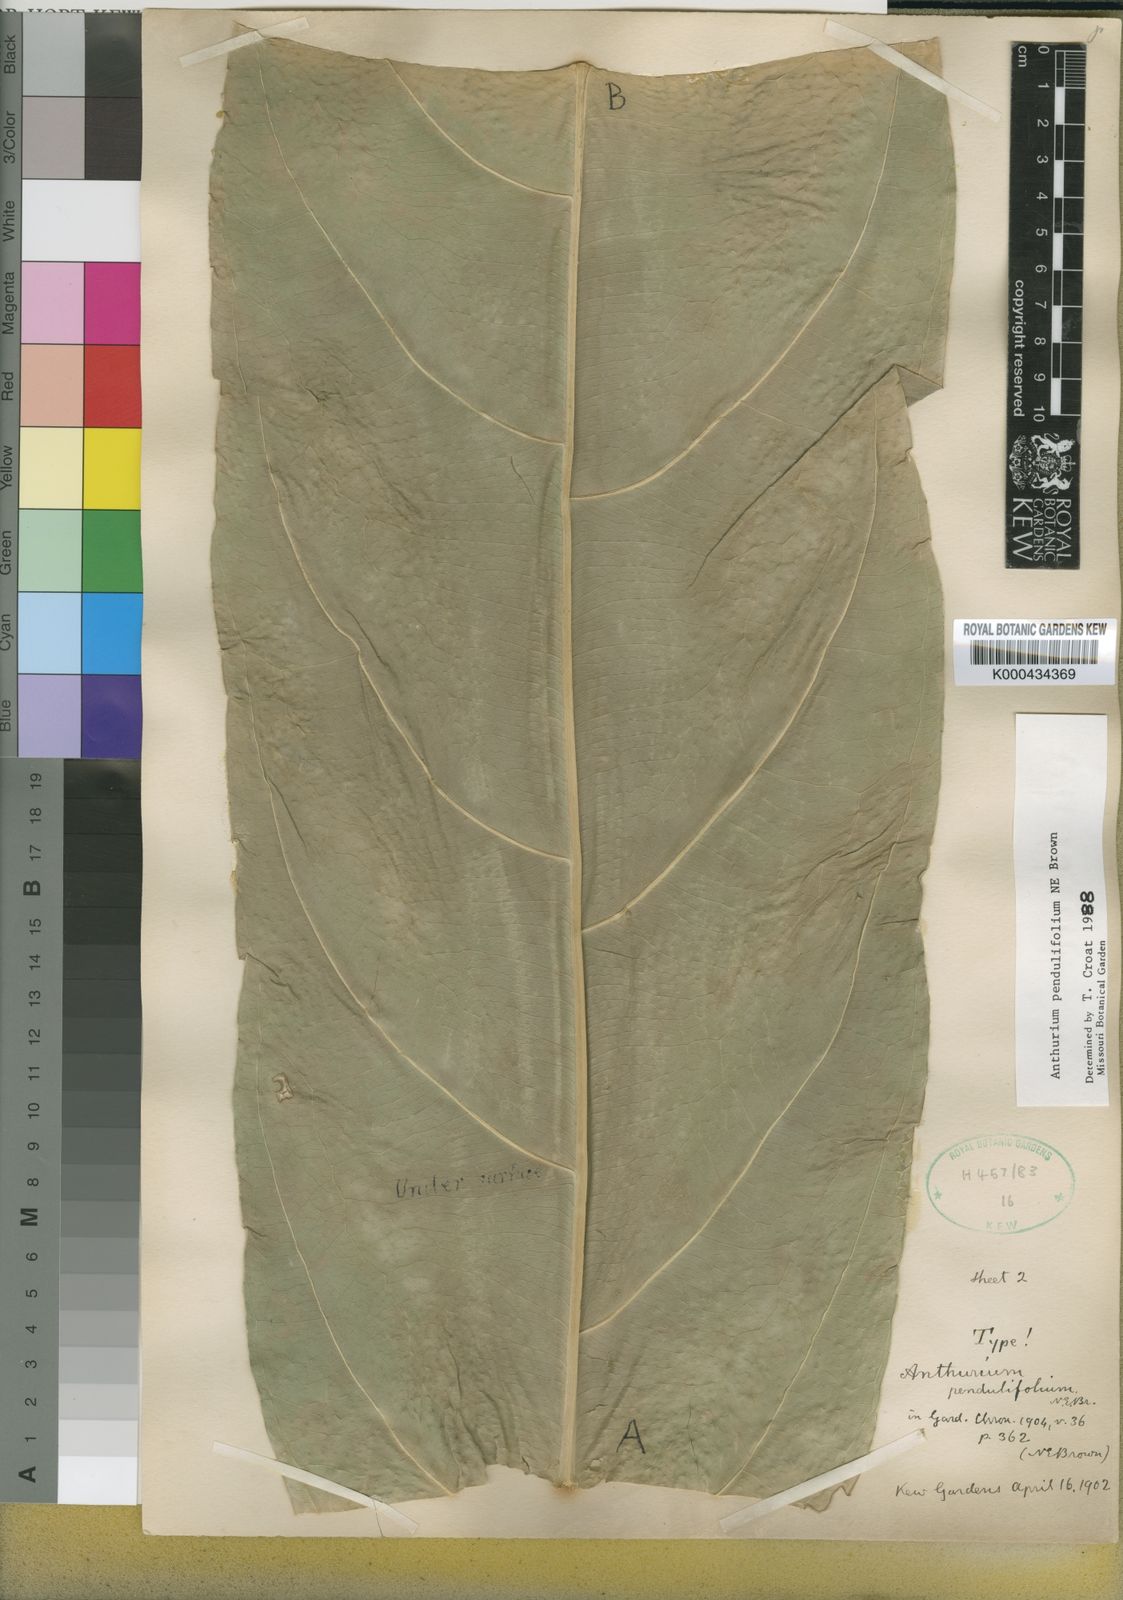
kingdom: Plantae
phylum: Tracheophyta
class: Liliopsida
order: Alismatales
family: Araceae
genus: Anthurium
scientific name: Anthurium pendulifolium
